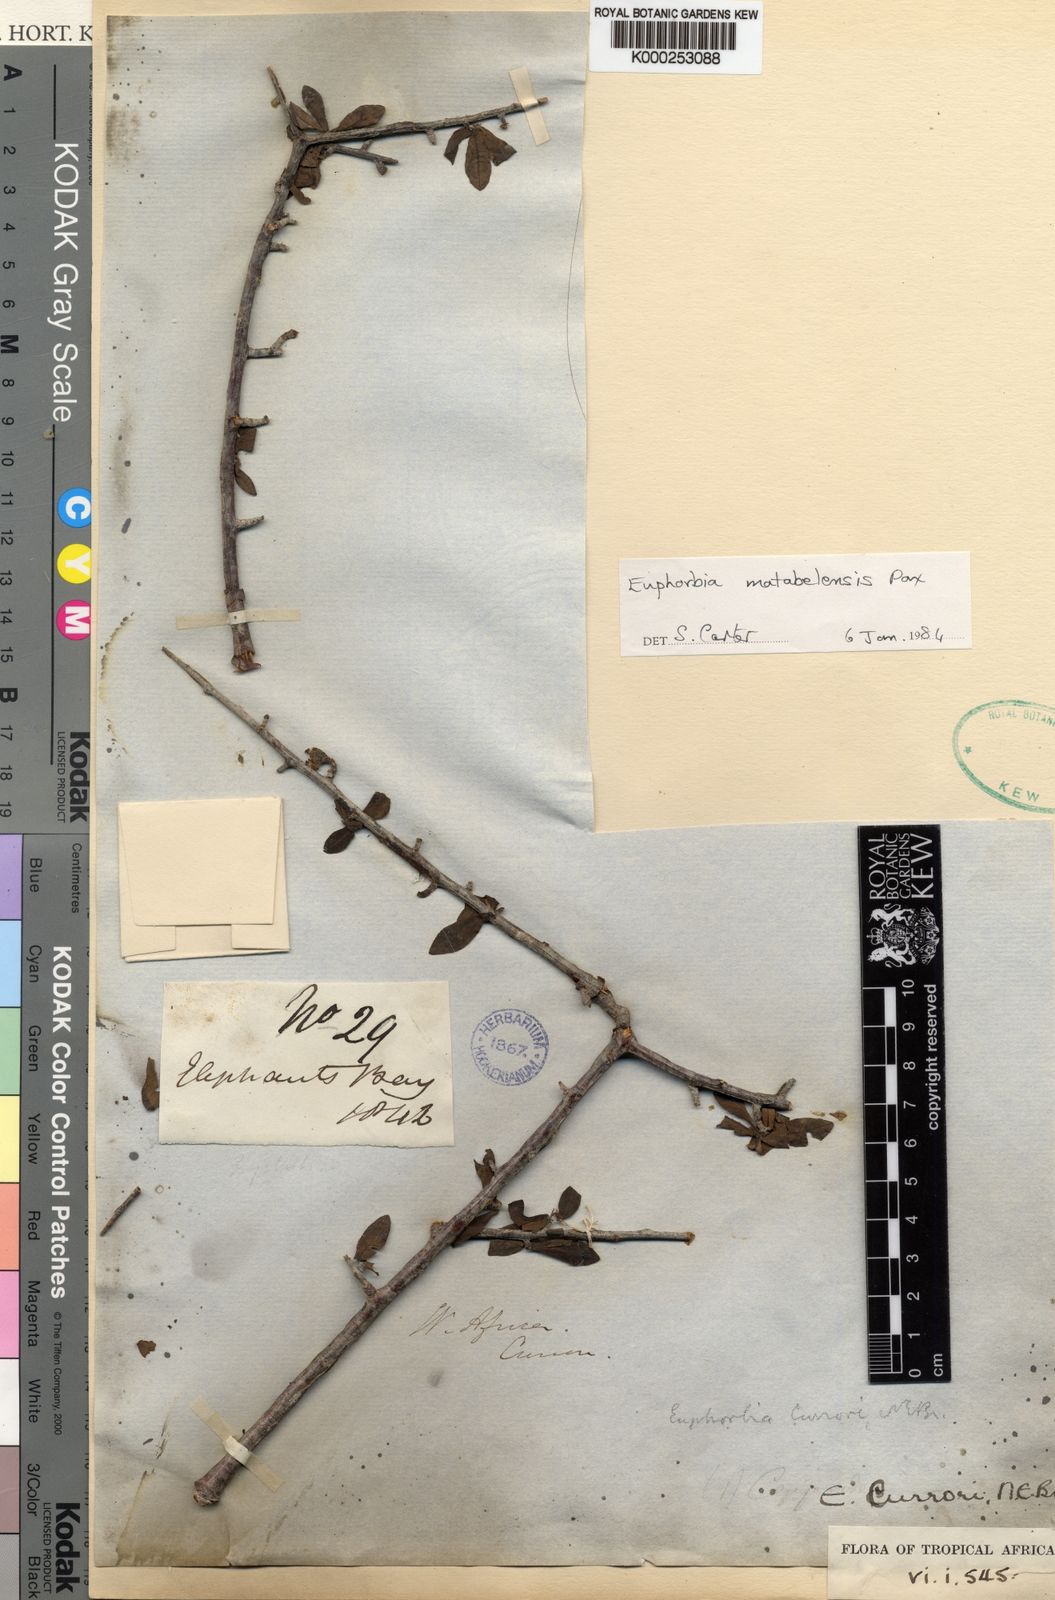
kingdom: Plantae
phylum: Tracheophyta
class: Magnoliopsida
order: Malpighiales
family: Euphorbiaceae
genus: Euphorbia
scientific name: Euphorbia matabelensis
